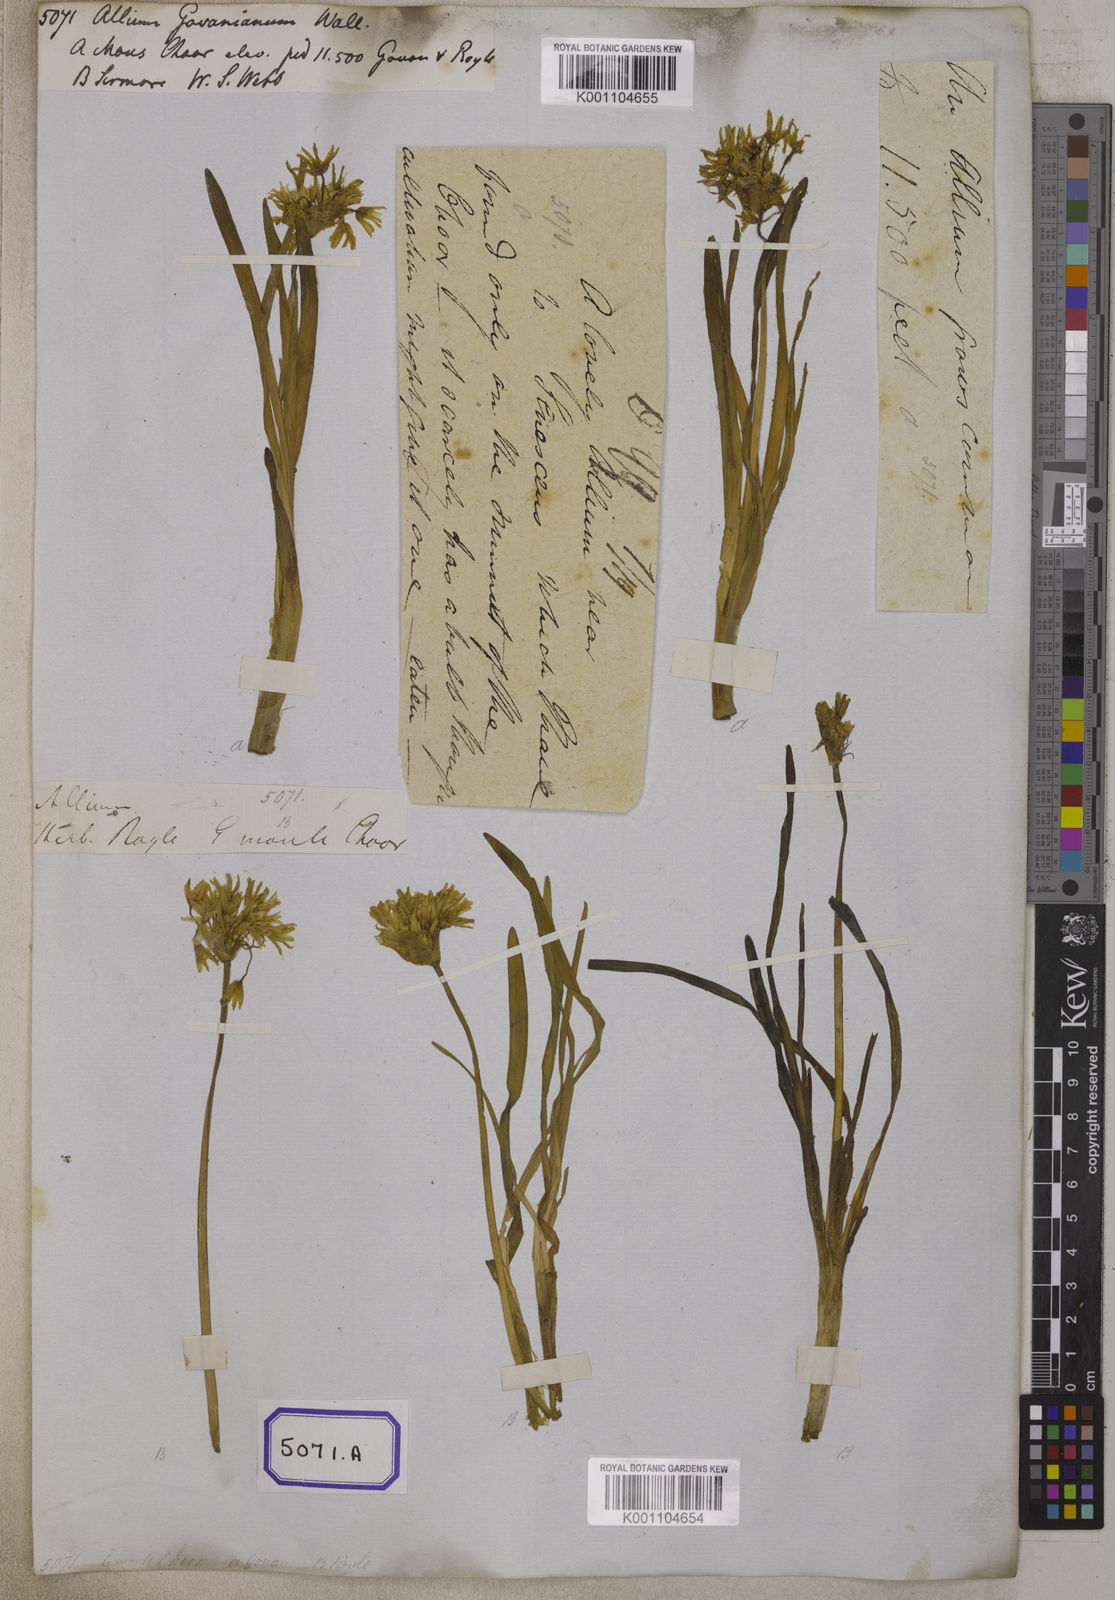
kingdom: Plantae
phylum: Tracheophyta
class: Liliopsida
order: Asparagales
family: Amaryllidaceae
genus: Allium
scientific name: Allium
